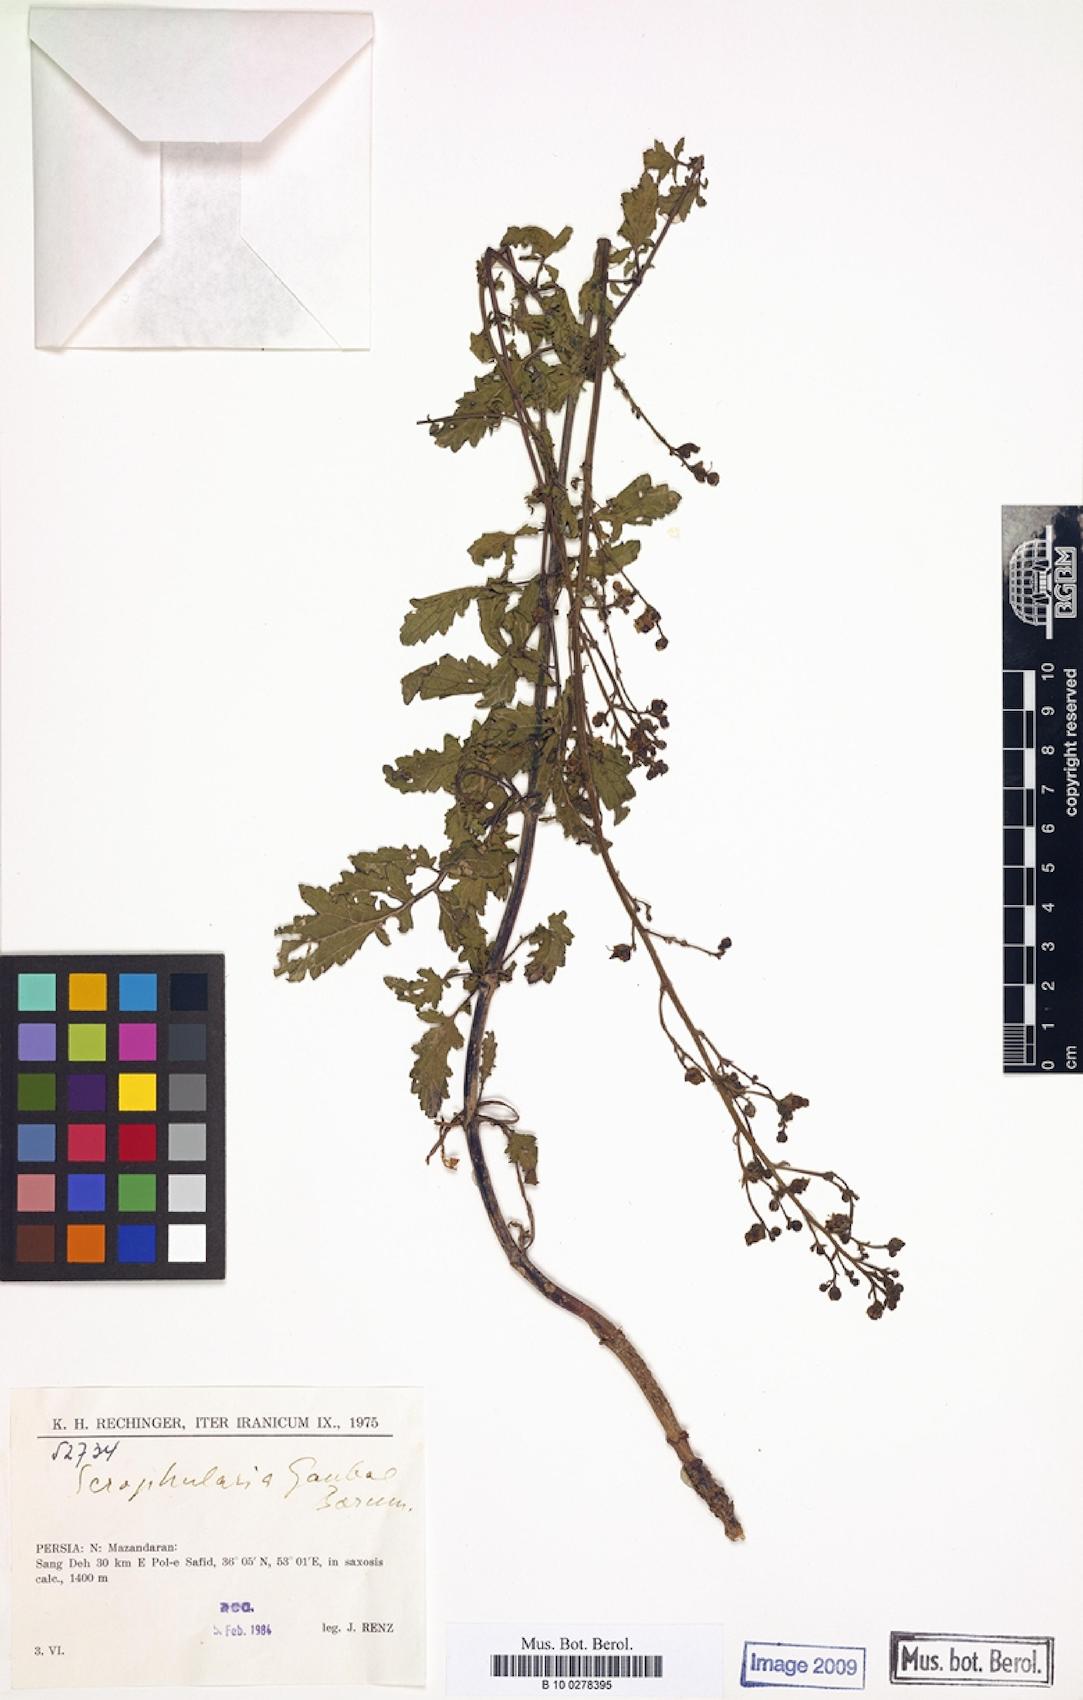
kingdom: Plantae
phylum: Tracheophyta
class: Magnoliopsida
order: Lamiales
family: Scrophulariaceae
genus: Scrophularia
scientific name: Scrophularia rostrata
